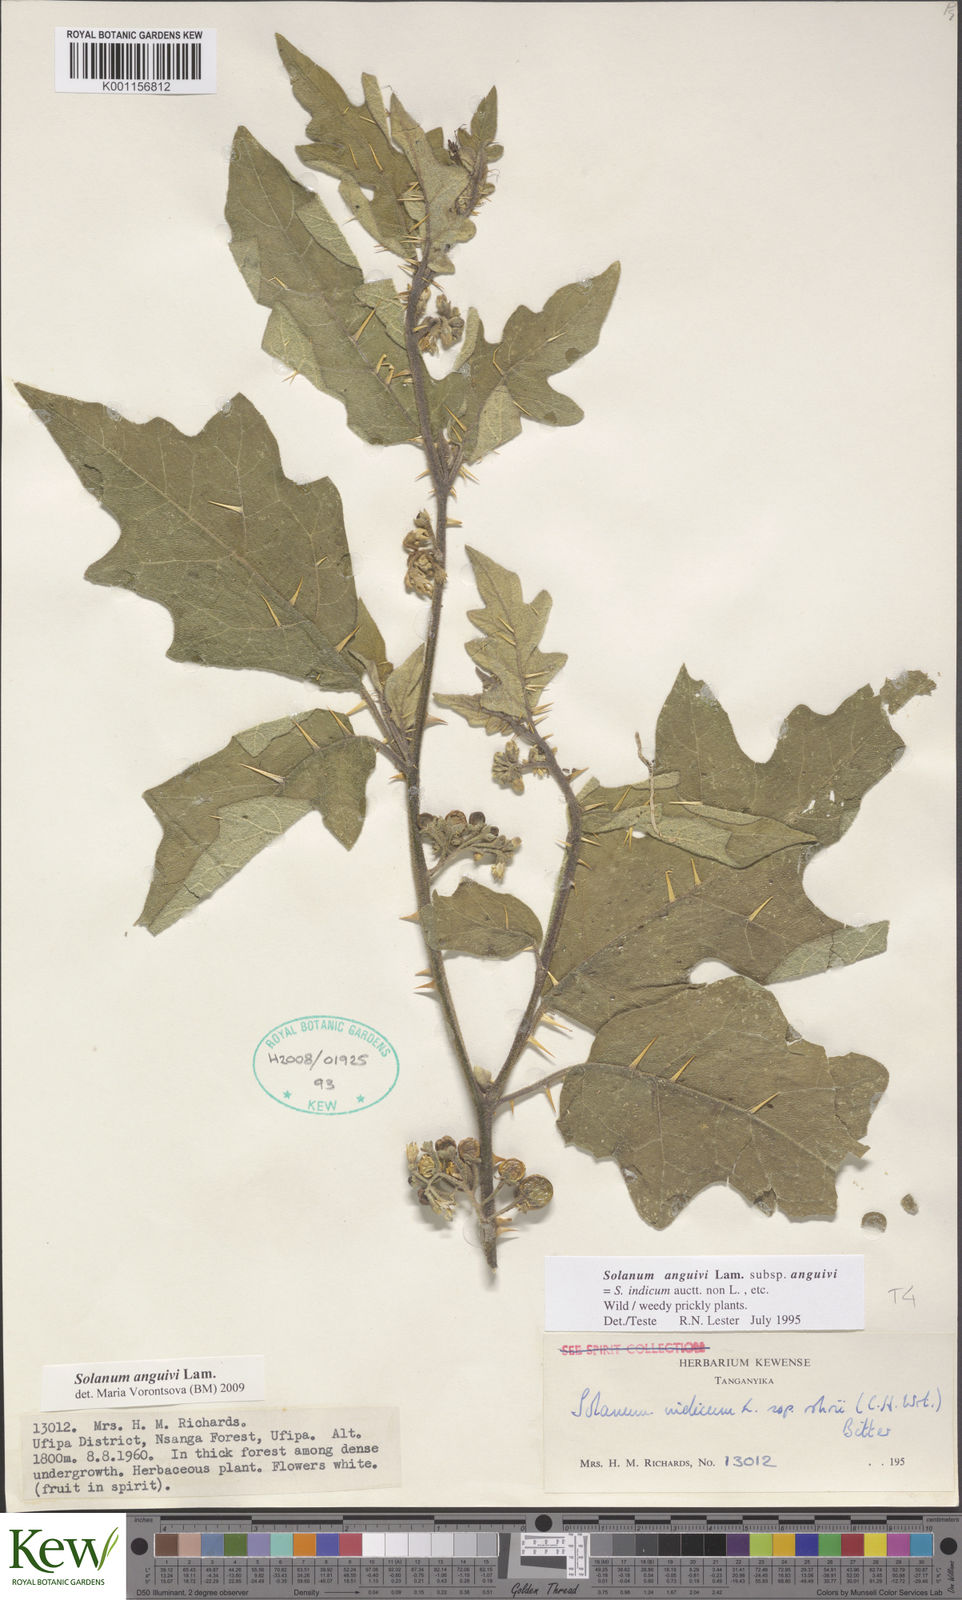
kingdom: Plantae
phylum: Tracheophyta
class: Magnoliopsida
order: Solanales
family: Solanaceae
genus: Solanum
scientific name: Solanum anguivi
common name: Forest bitterberry
